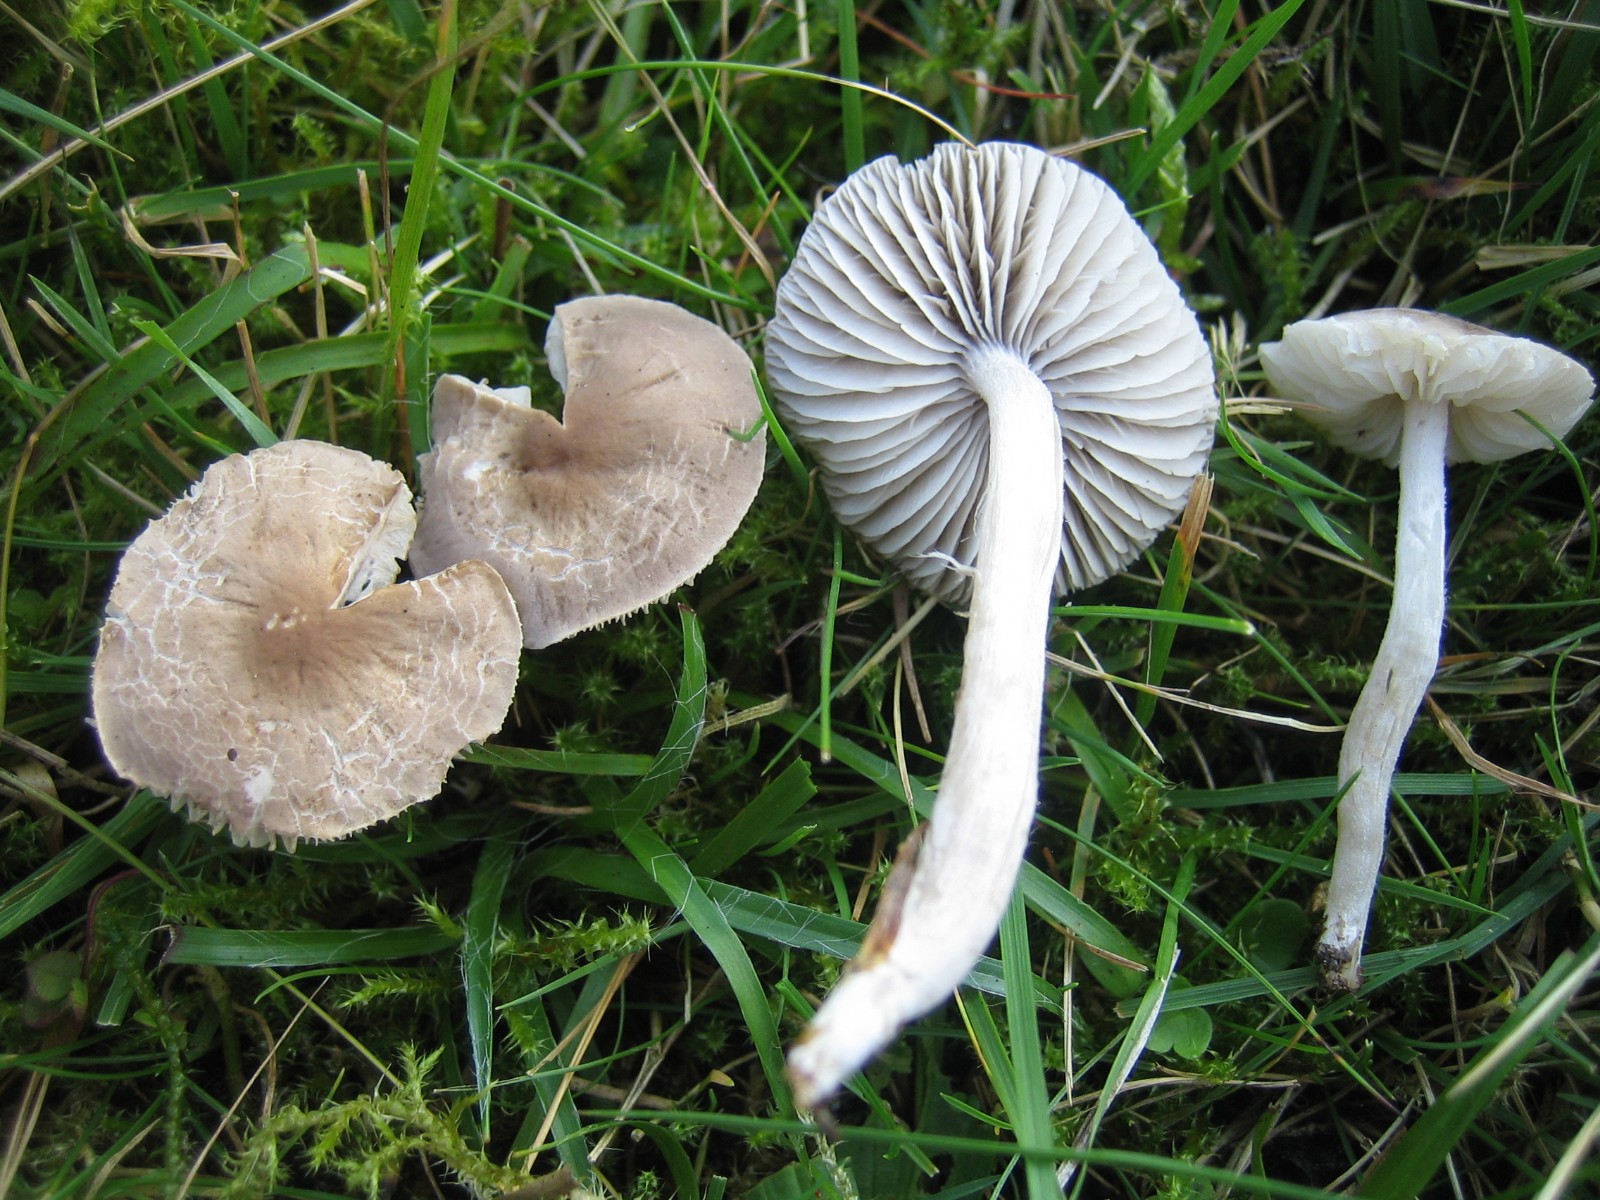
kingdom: Fungi
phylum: Basidiomycota
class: Agaricomycetes
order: Agaricales
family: Tricholomataceae
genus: Dermoloma
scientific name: Dermoloma cuneifolium
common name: eng-nonnehat
